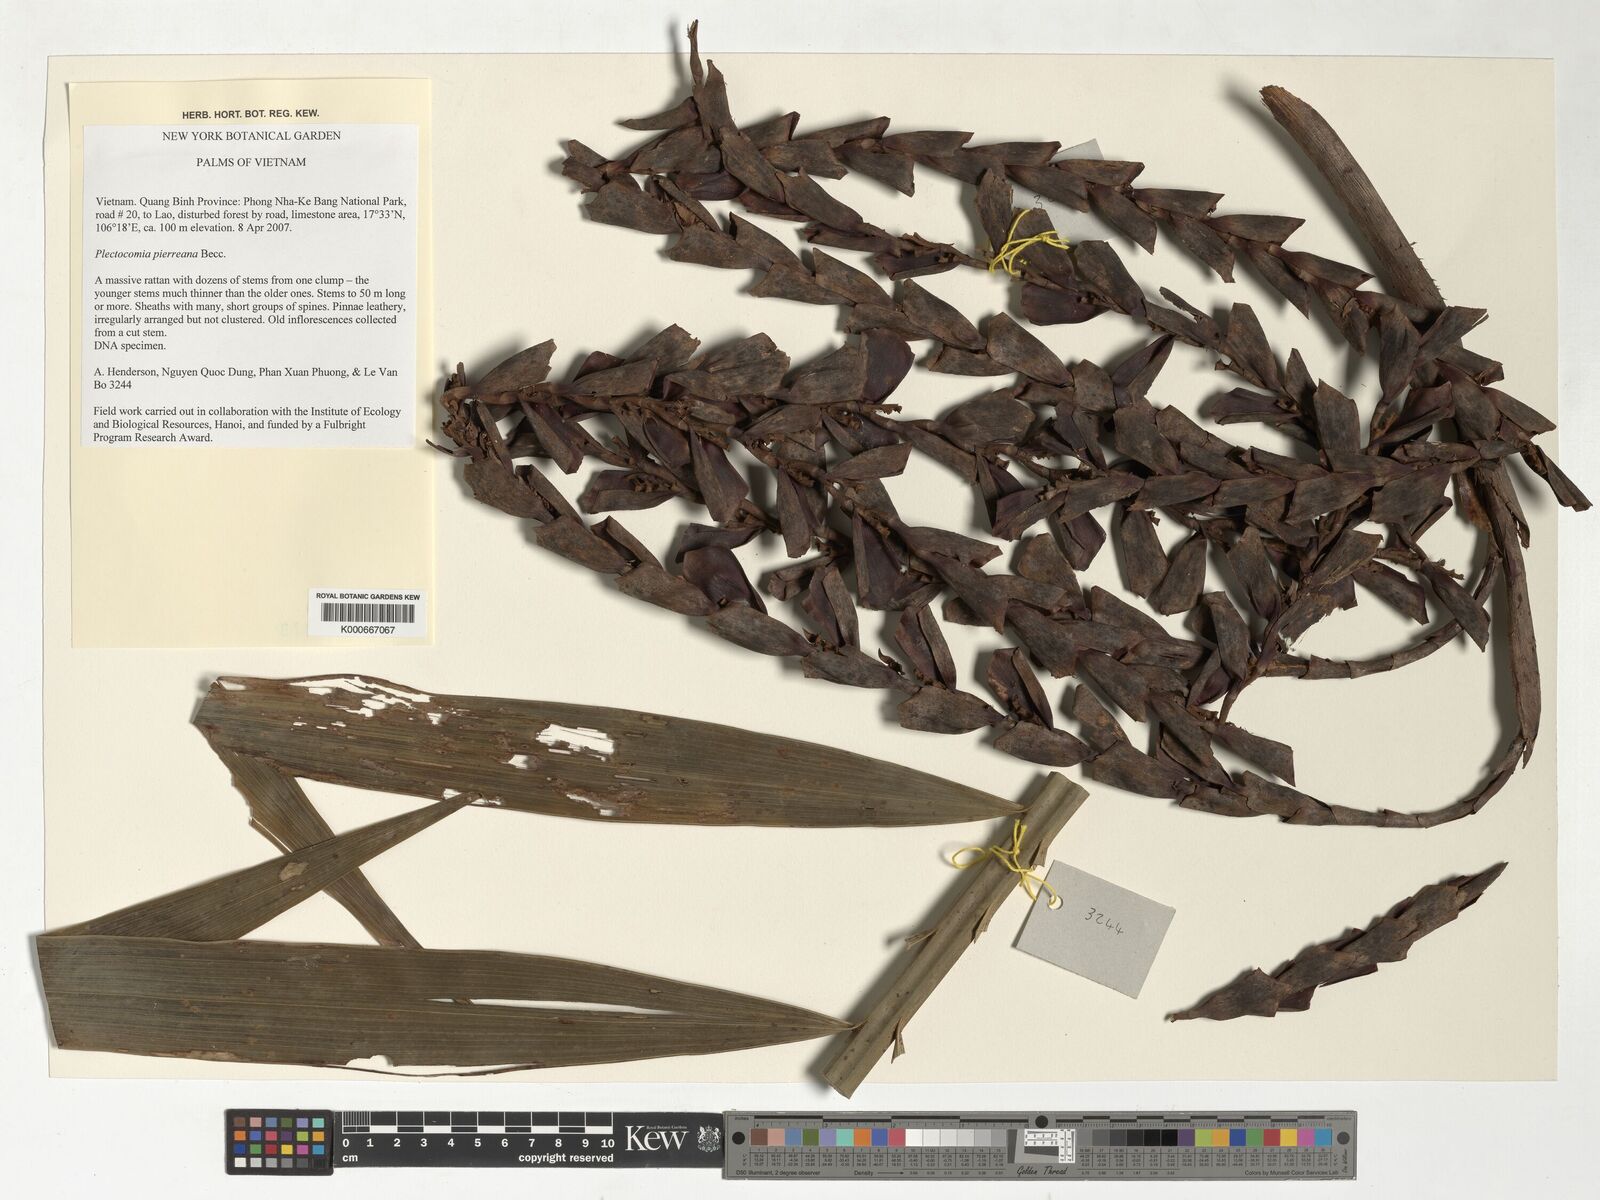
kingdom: Plantae
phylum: Tracheophyta
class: Liliopsida
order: Arecales
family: Arecaceae
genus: Plectocomia
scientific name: Plectocomia pierreana
